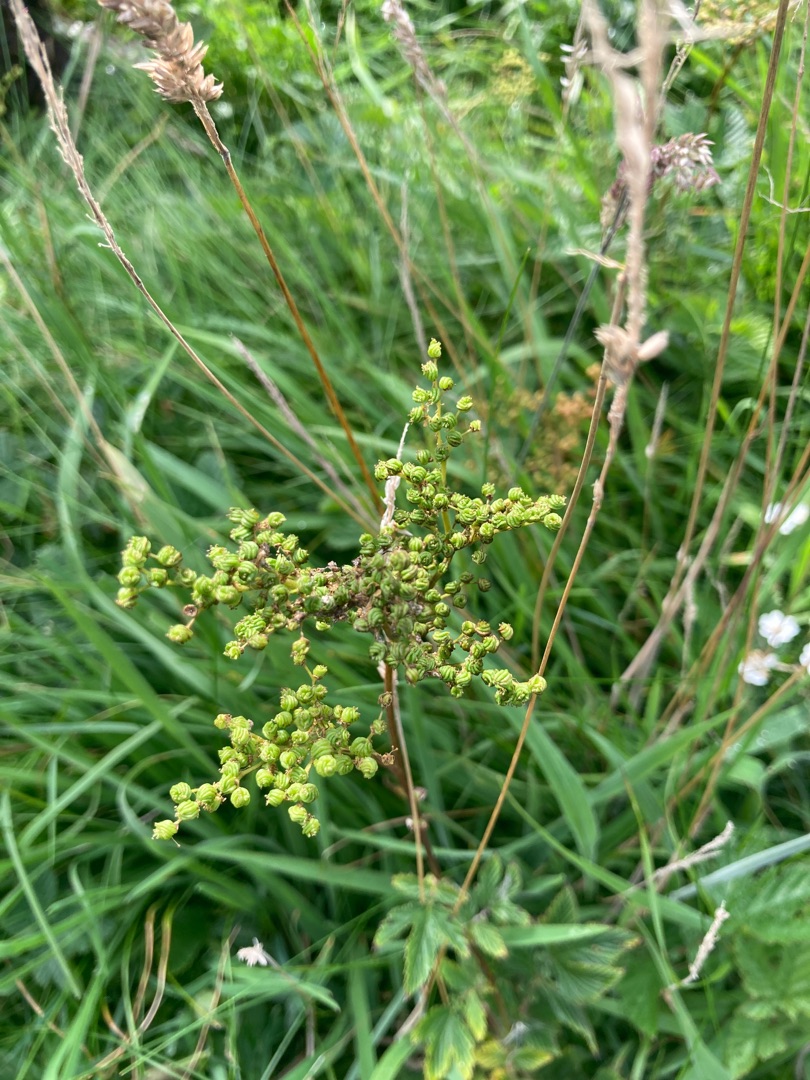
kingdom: Plantae
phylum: Tracheophyta
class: Magnoliopsida
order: Rosales
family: Rosaceae
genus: Filipendula
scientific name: Filipendula ulmaria
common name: Almindelig mjødurt
